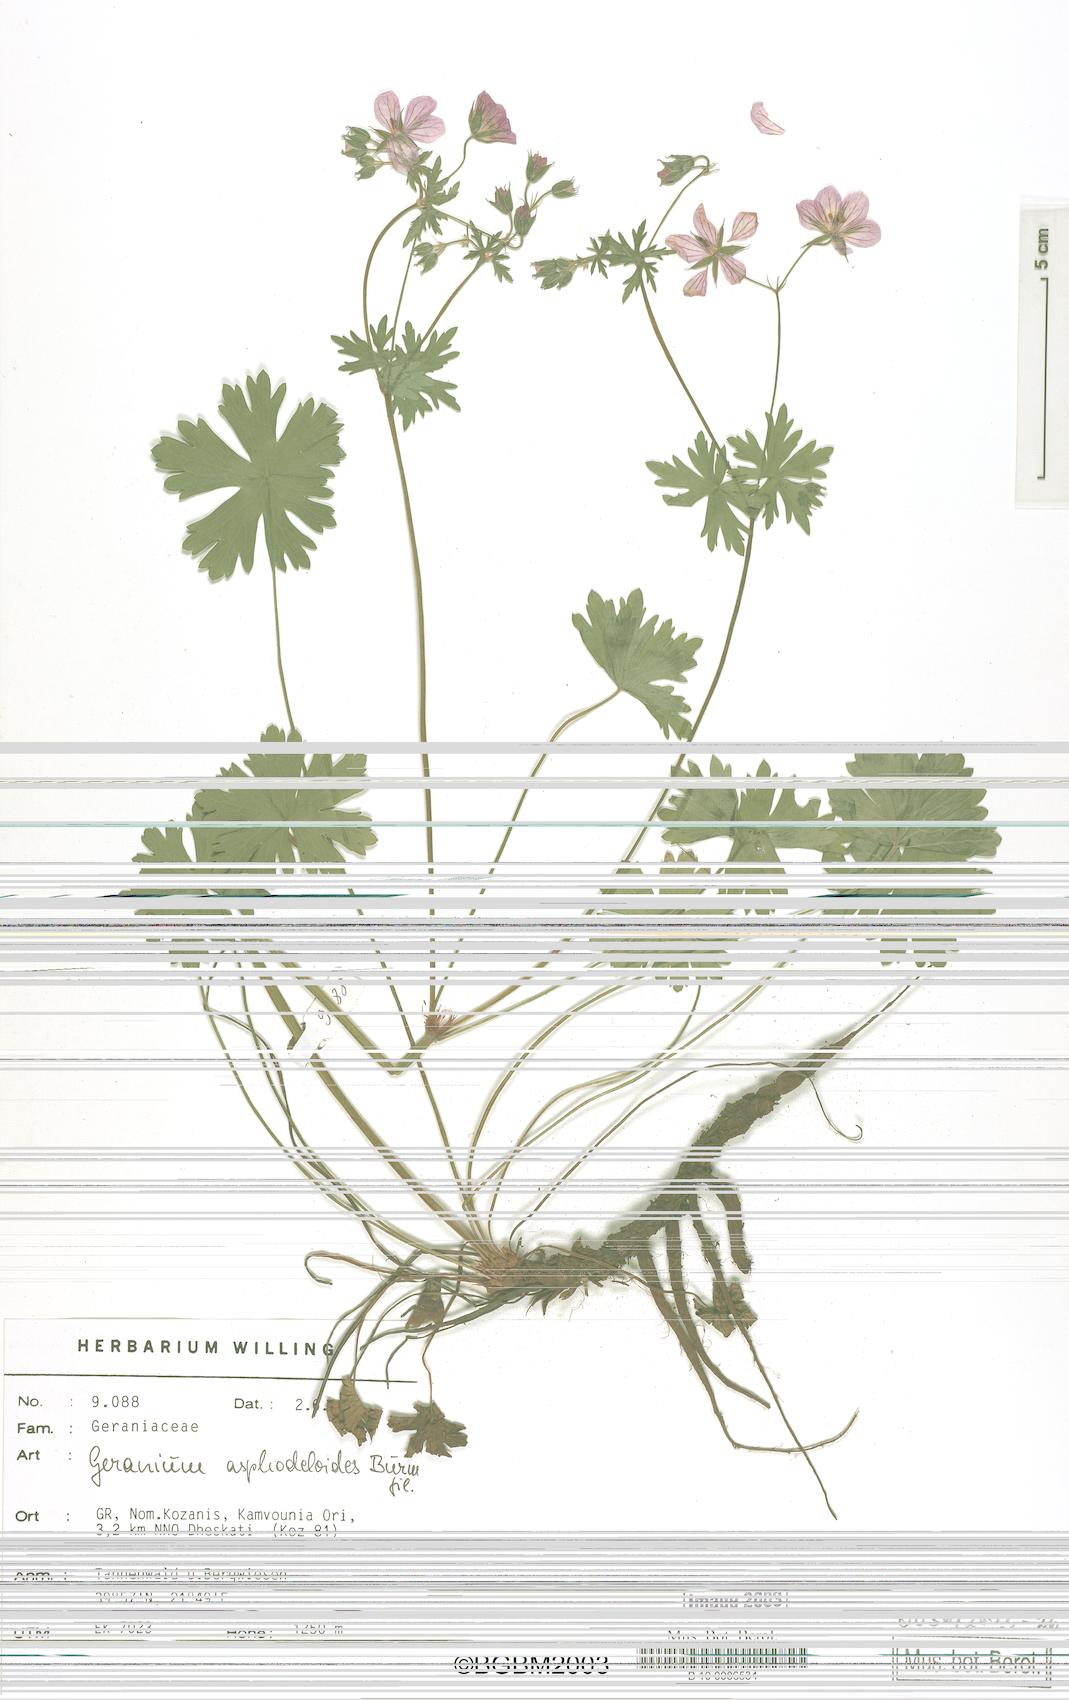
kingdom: Plantae
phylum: Tracheophyta
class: Magnoliopsida
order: Geraniales
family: Geraniaceae
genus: Geranium
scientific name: Geranium asphodeloides
